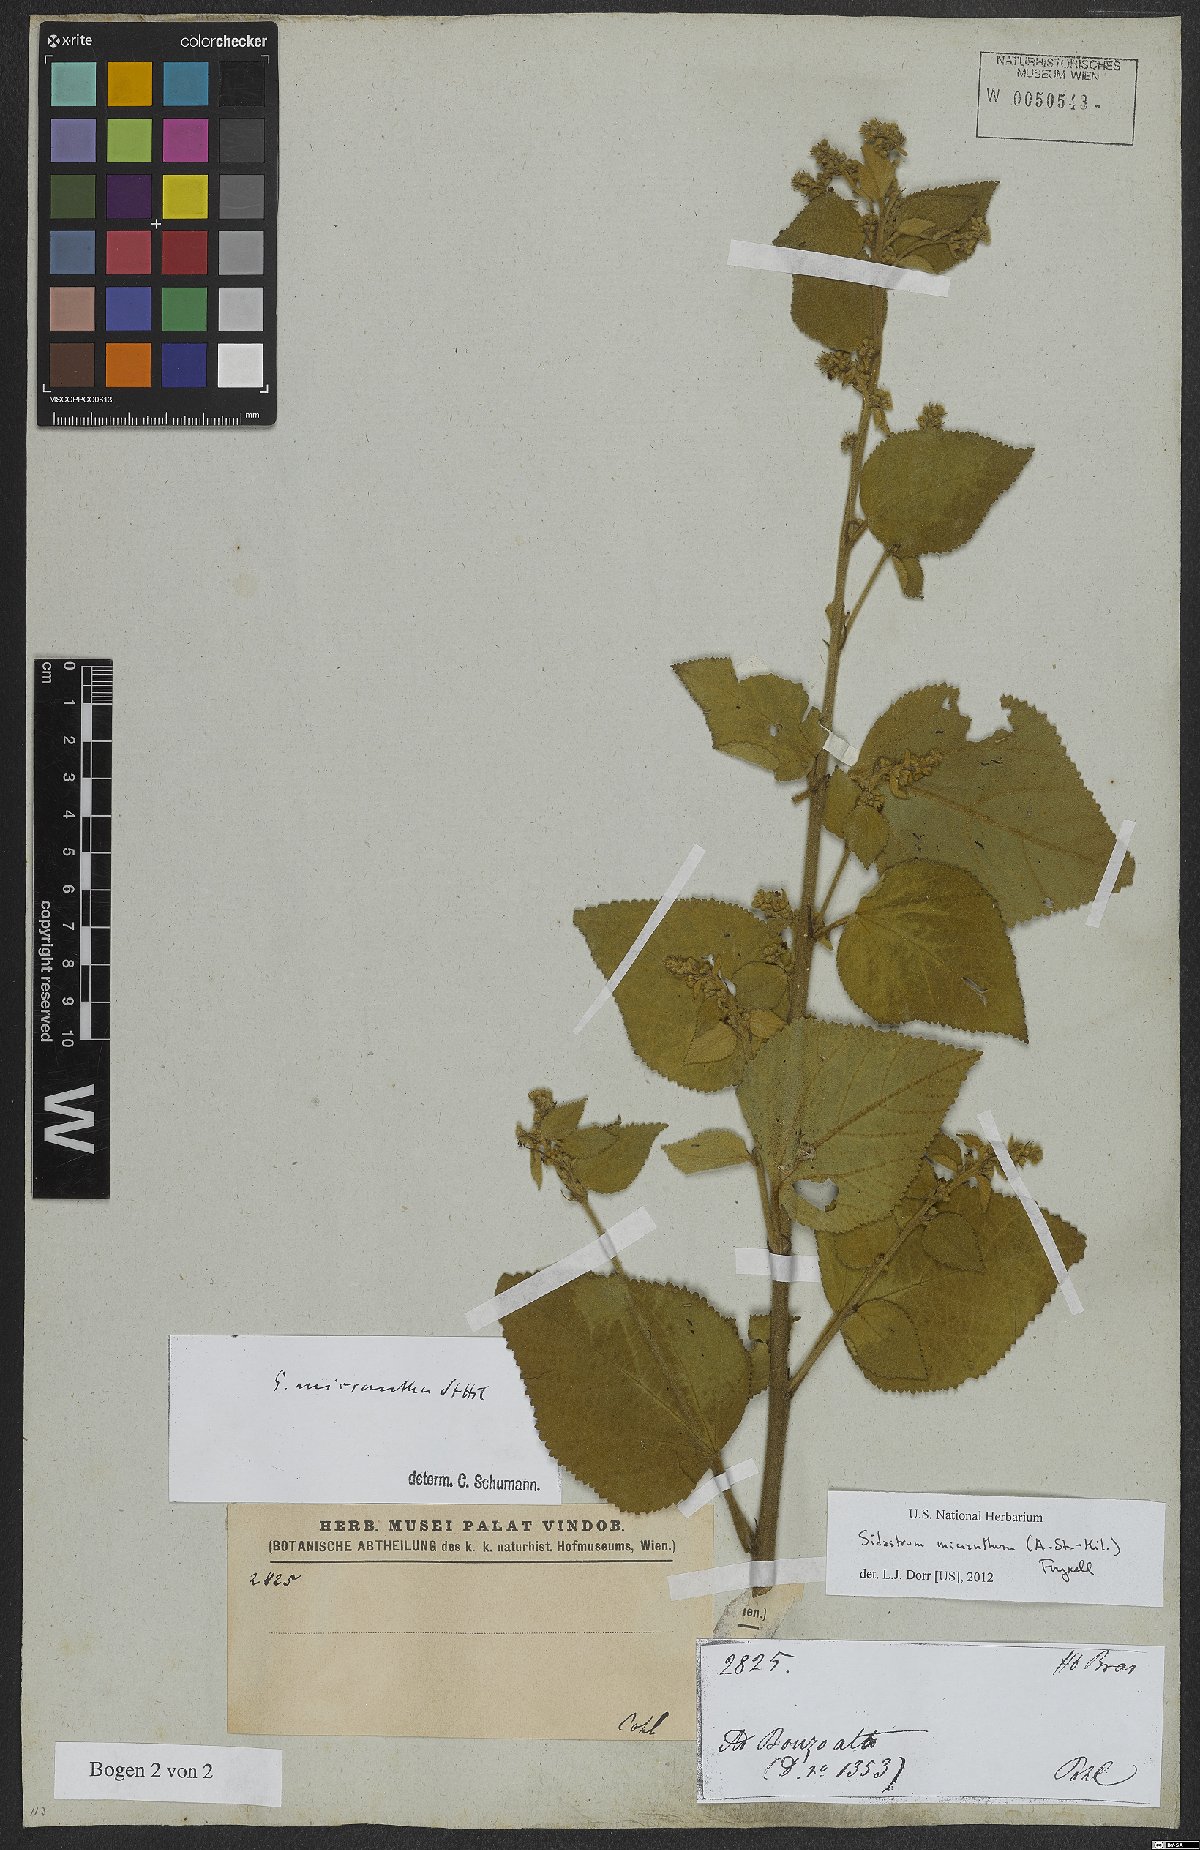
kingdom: Plantae
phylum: Tracheophyta
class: Magnoliopsida
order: Malvales
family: Malvaceae
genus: Sidastrum
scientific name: Sidastrum micranthum
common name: Dainty sandmallow
